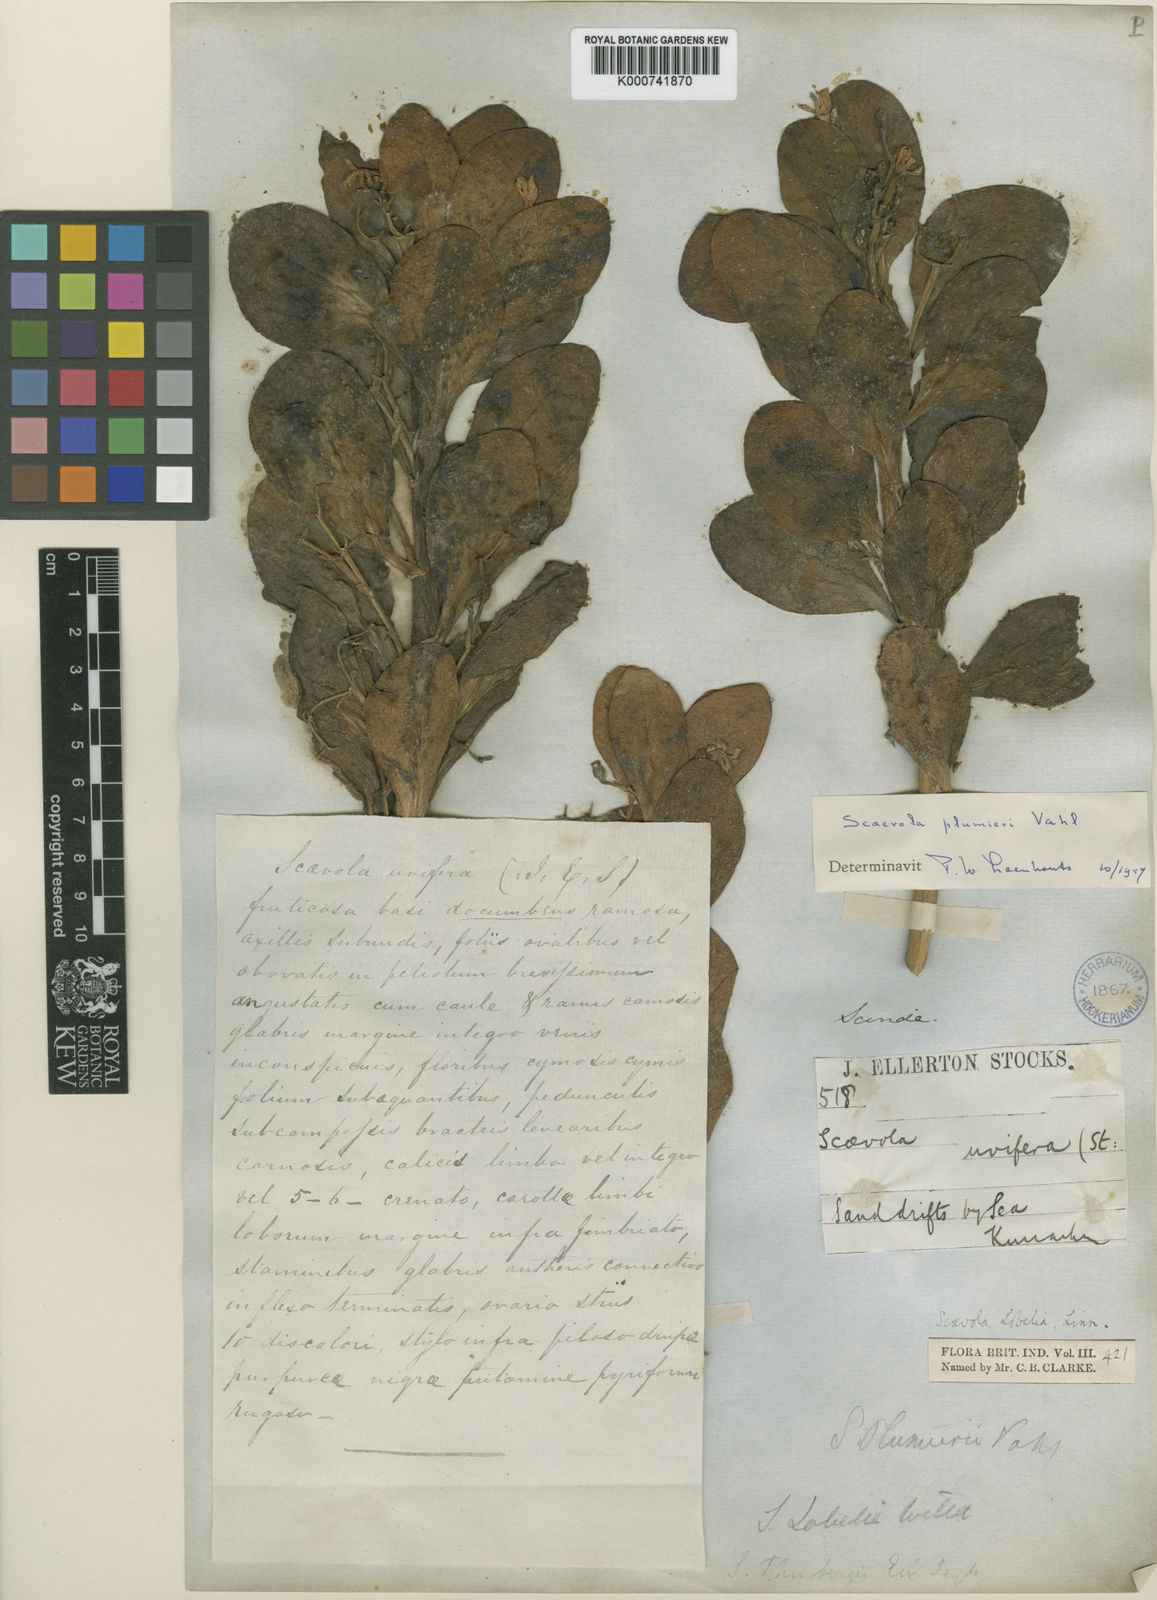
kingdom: Plantae
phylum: Tracheophyta
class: Magnoliopsida
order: Asterales
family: Goodeniaceae
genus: Scaevola
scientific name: Scaevola plumieri
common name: Gull feed
